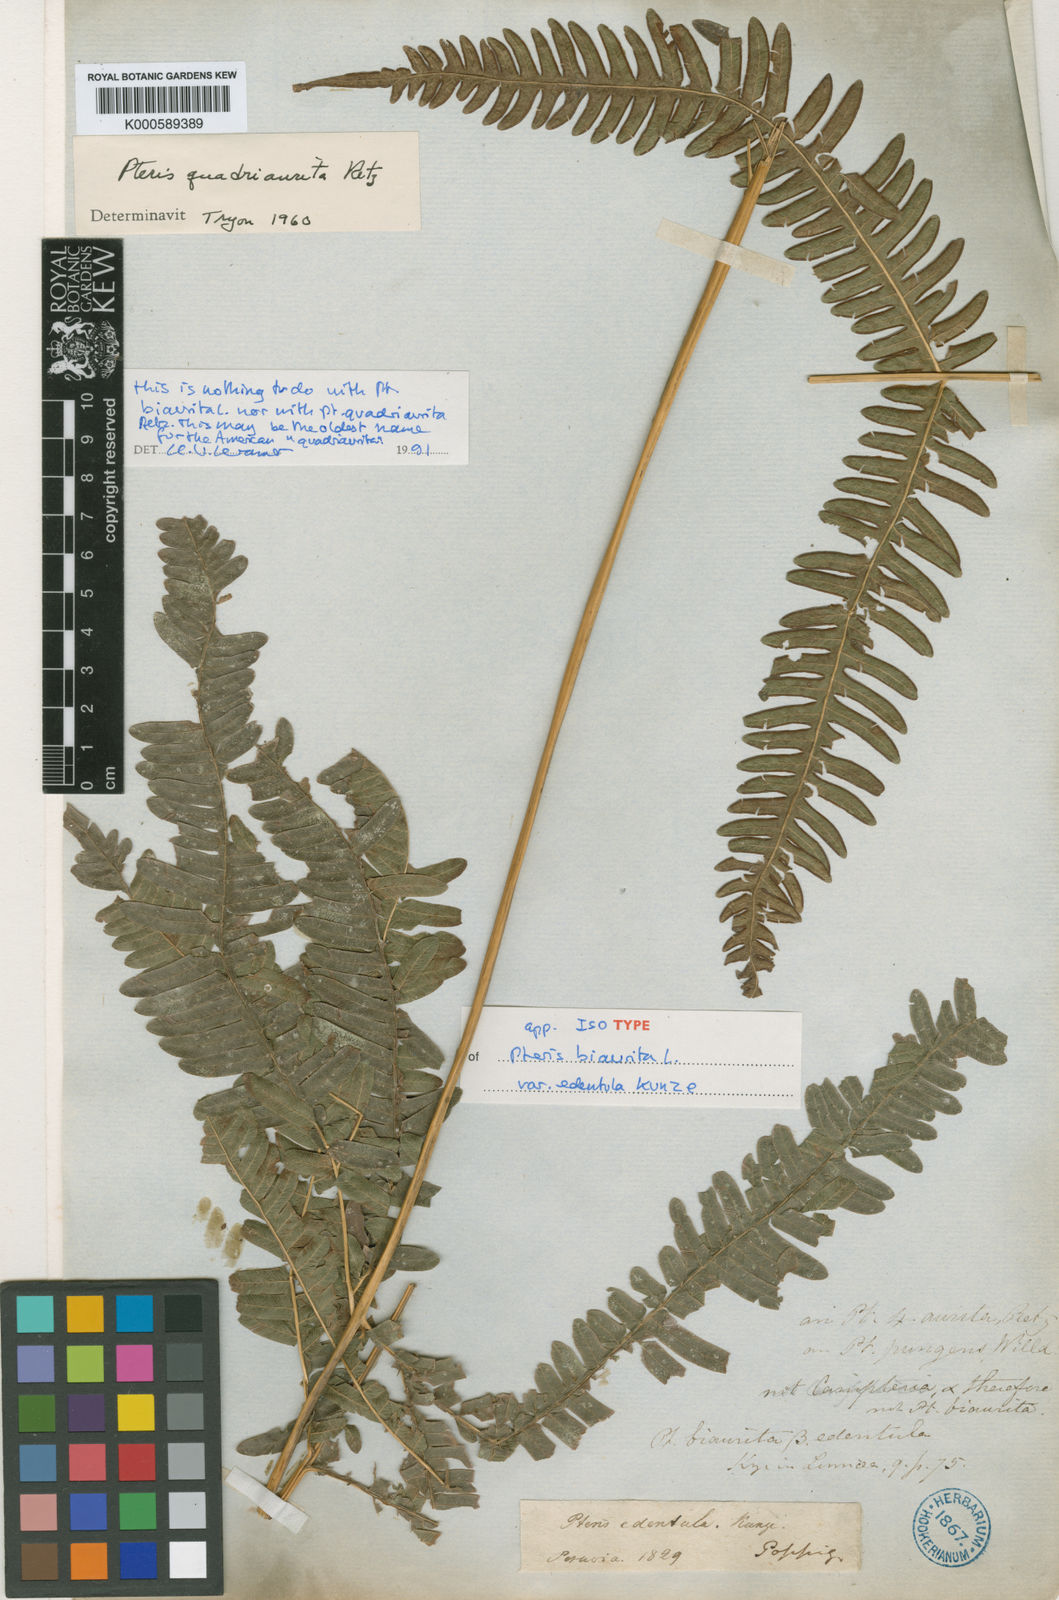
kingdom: Plantae
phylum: Tracheophyta
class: Polypodiopsida
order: Polypodiales
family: Pteridaceae
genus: Pteris
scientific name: Pteris biaurita
